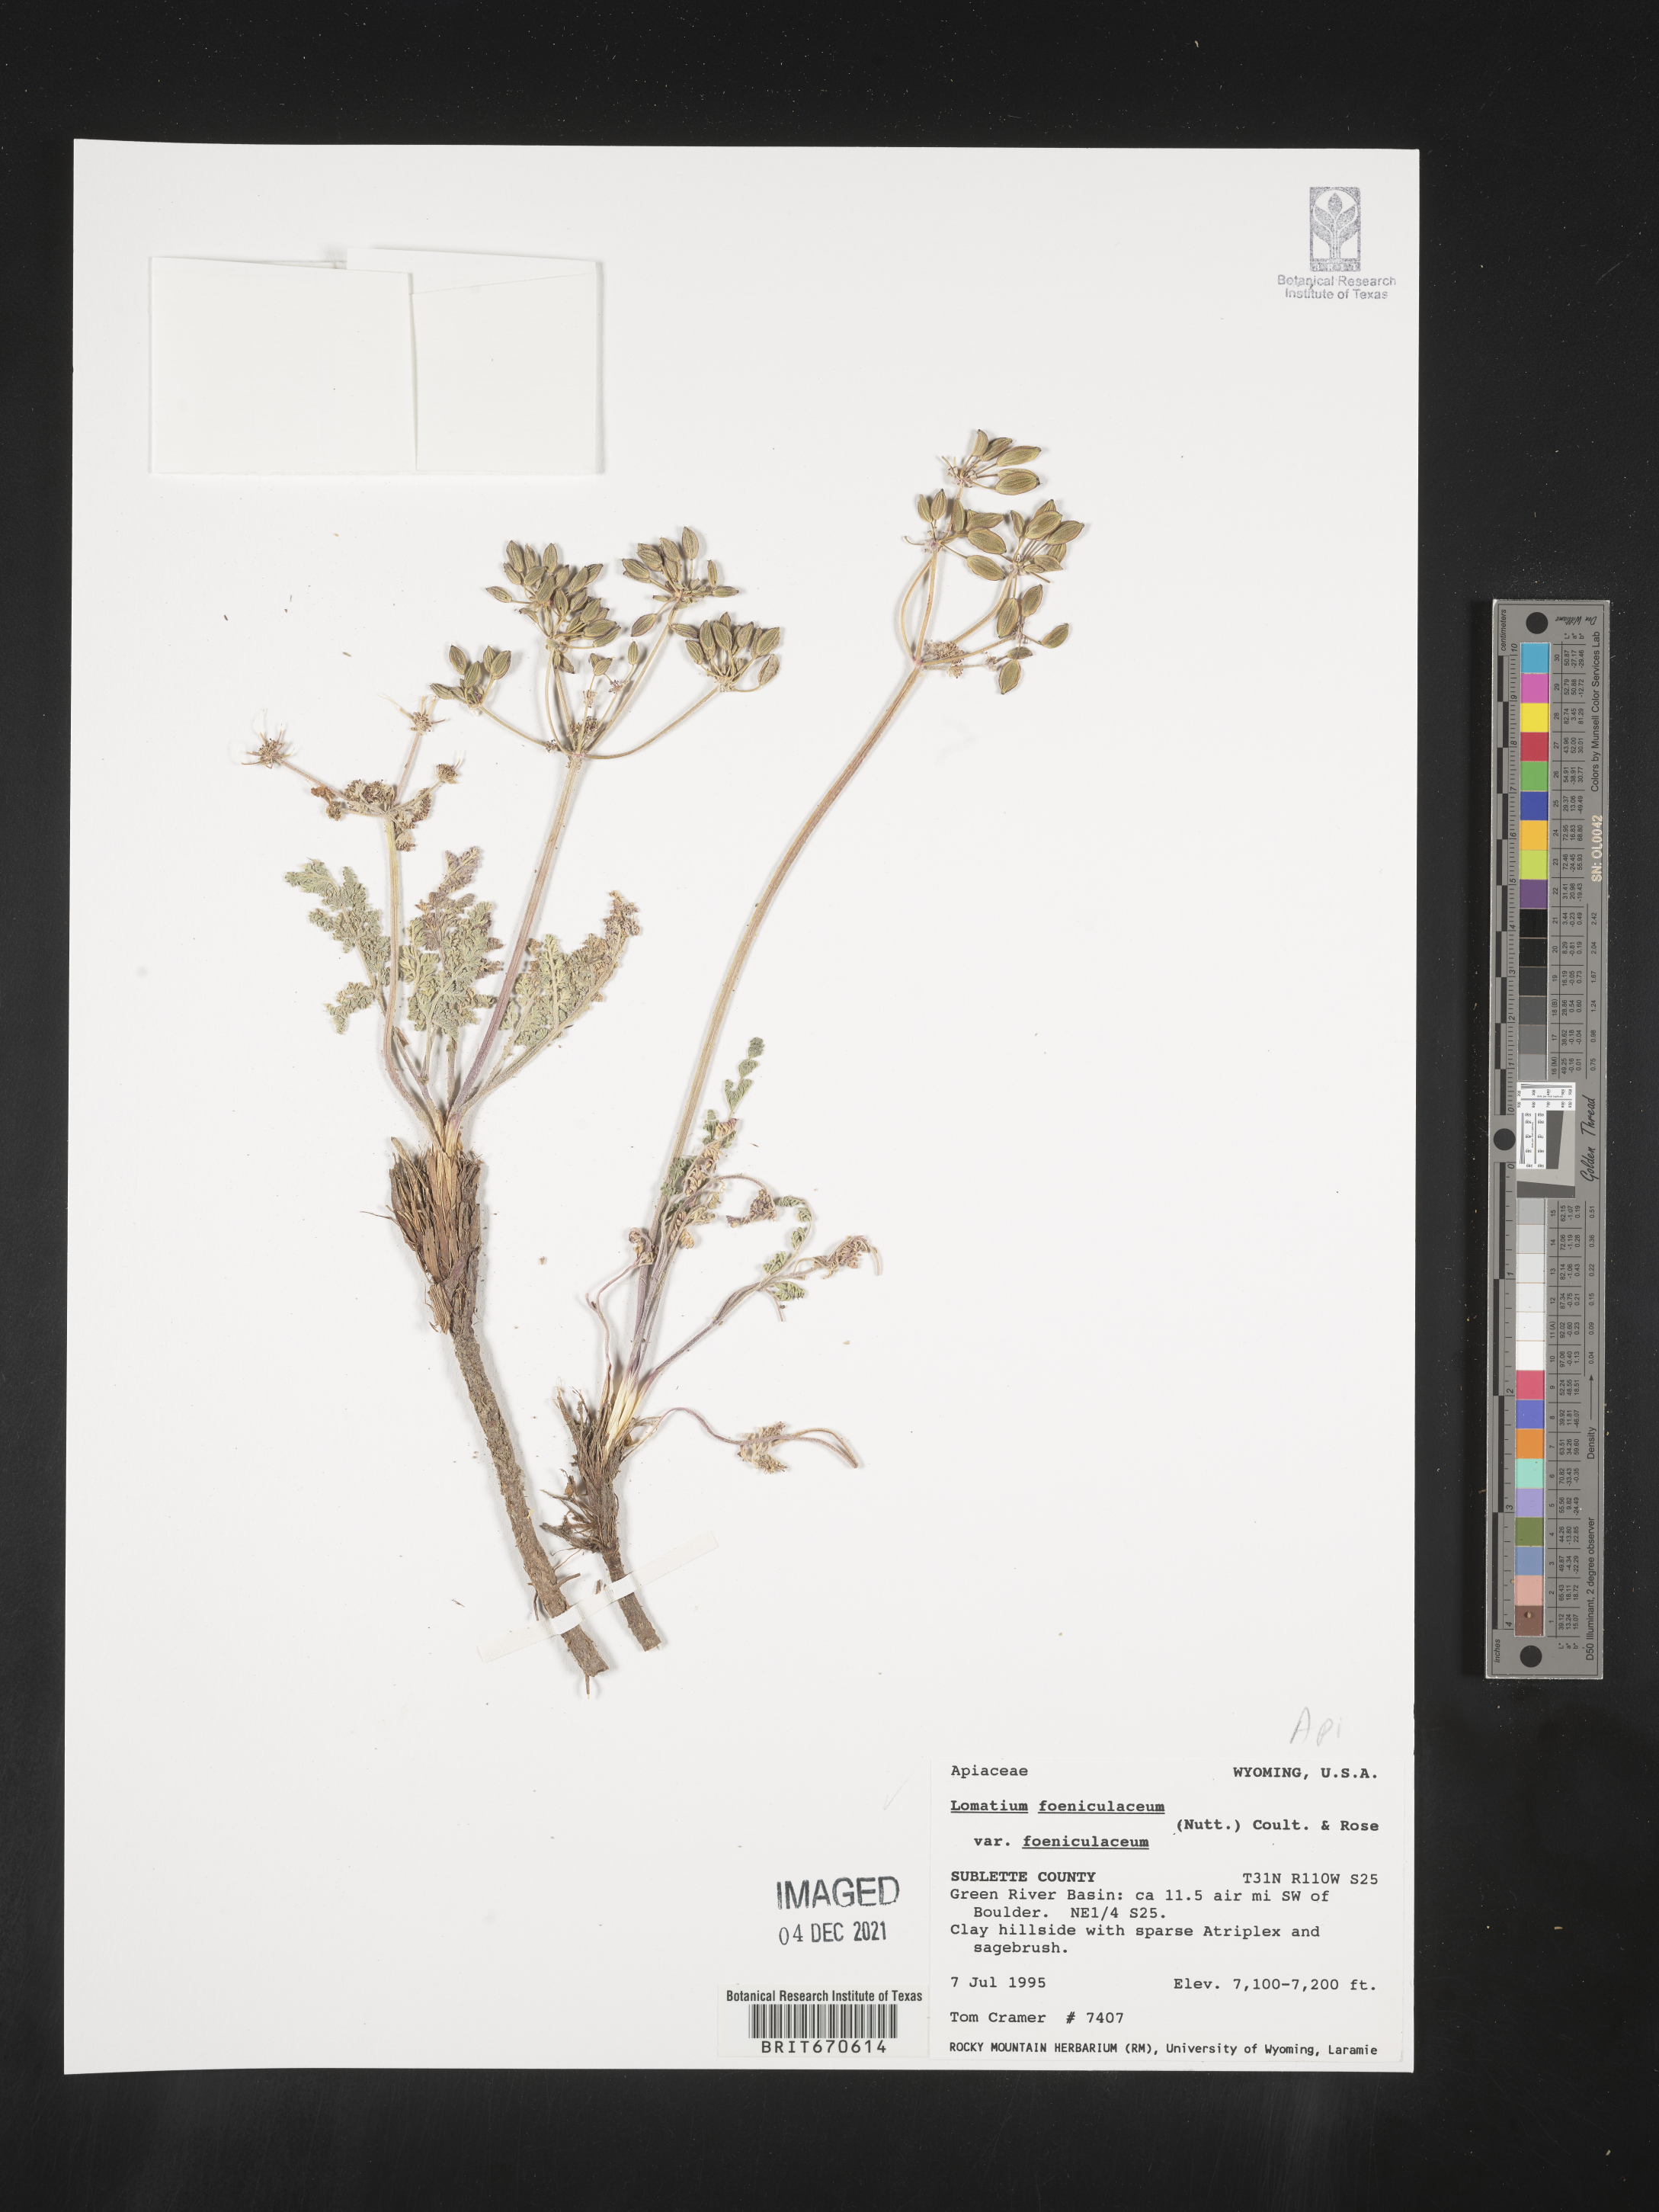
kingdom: Plantae
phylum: Tracheophyta
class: Magnoliopsida
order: Apiales
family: Apiaceae
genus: Lomatium
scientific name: Lomatium foeniculaceum
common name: Desert-parsley
